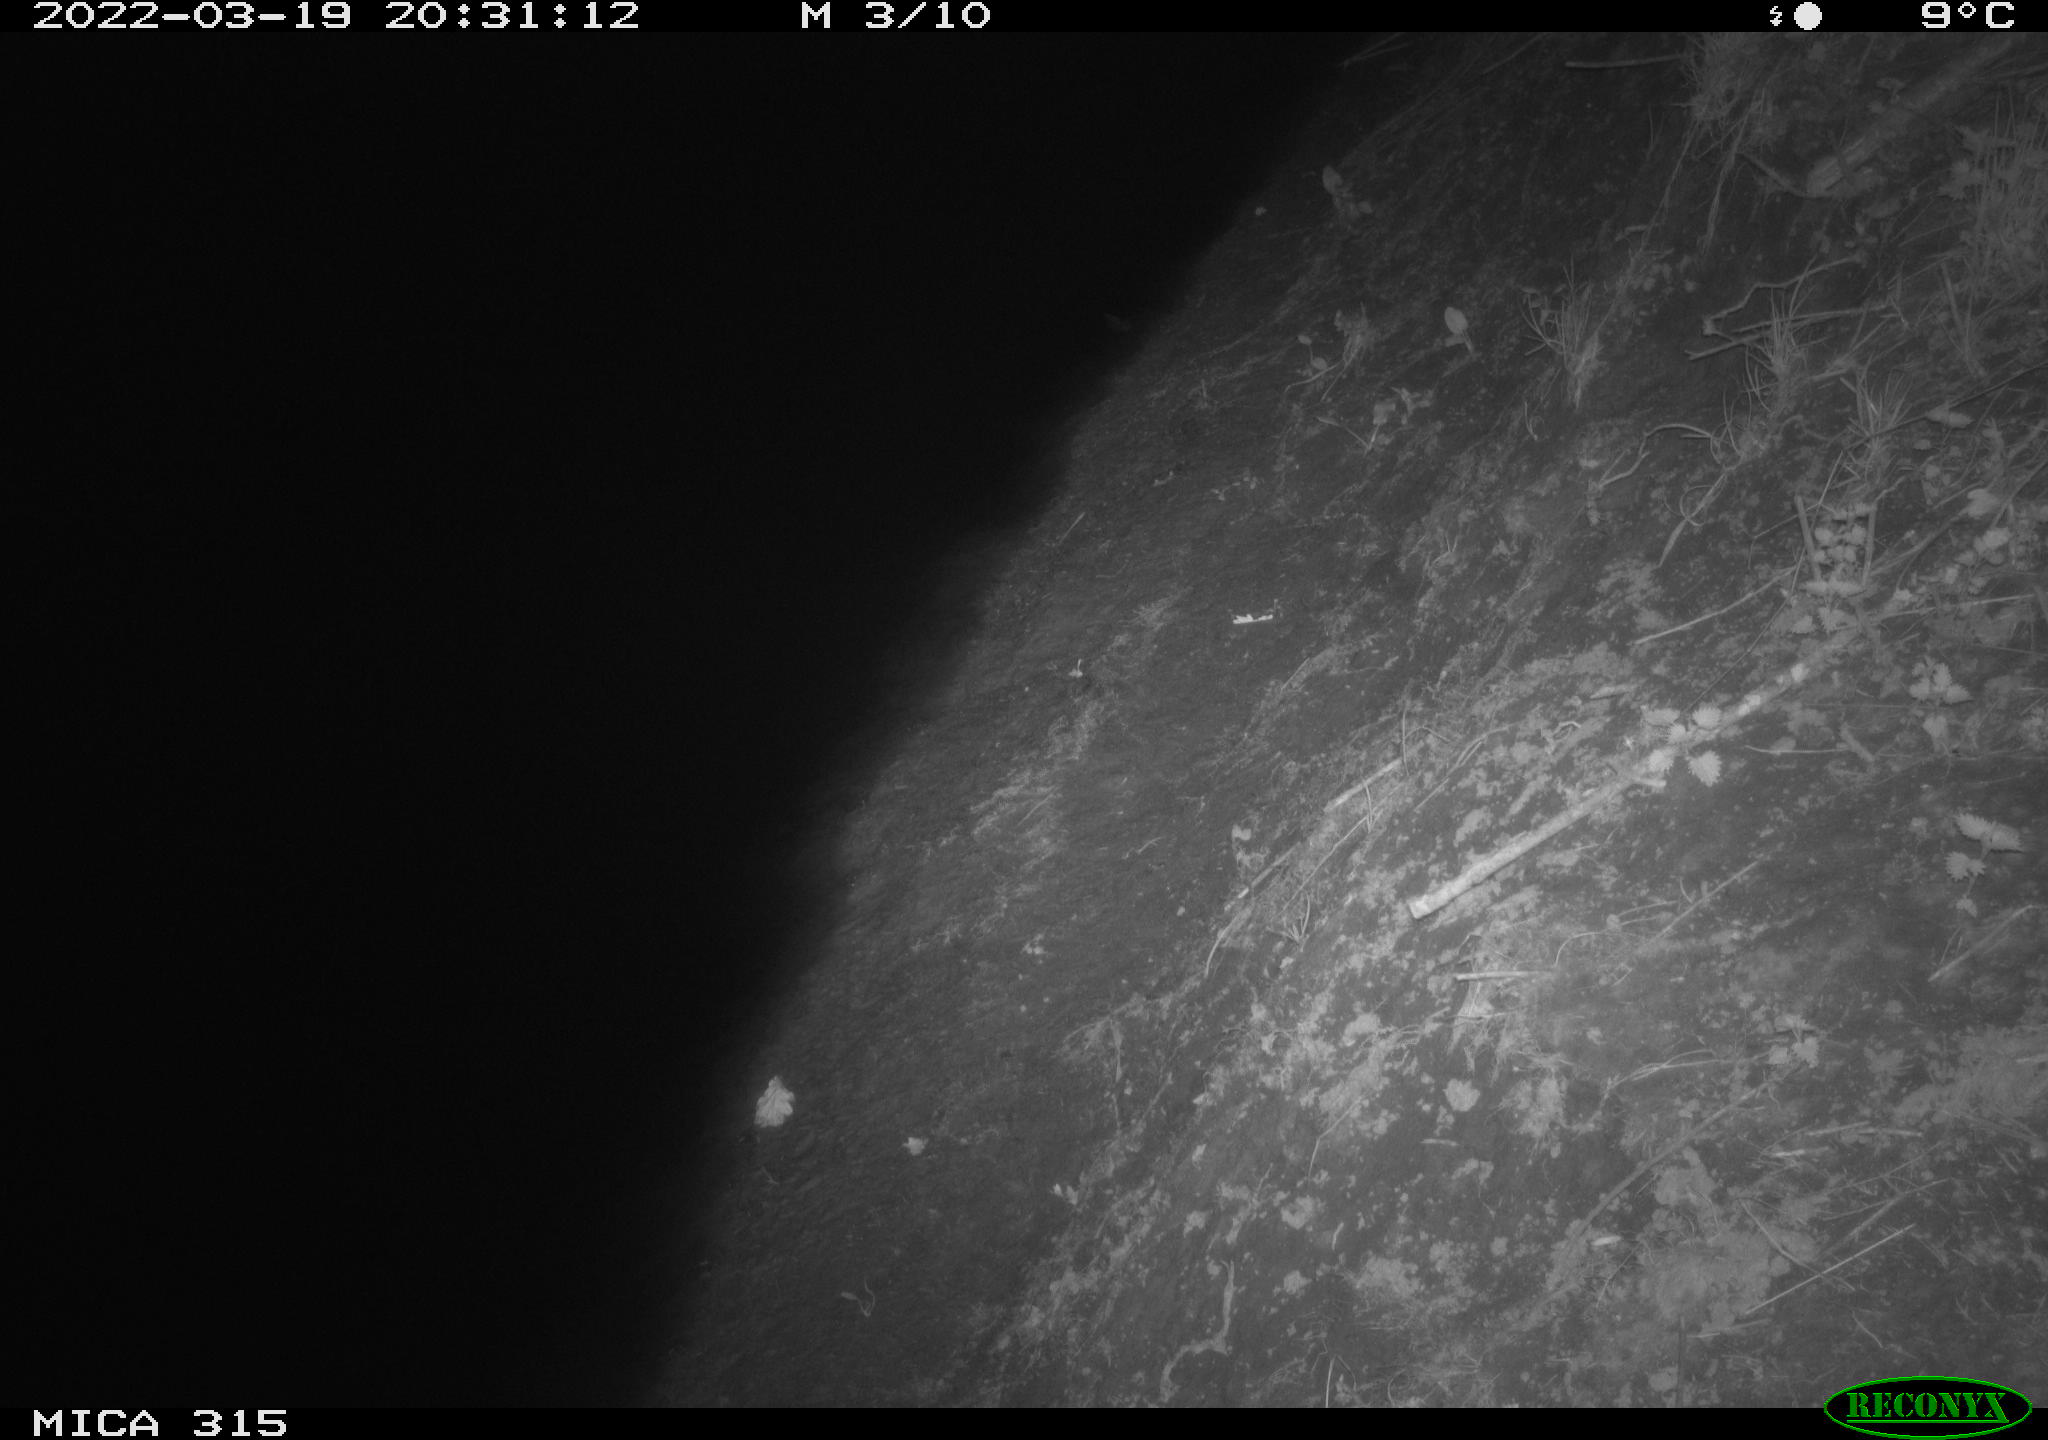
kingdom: Animalia
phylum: Chordata
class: Mammalia
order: Rodentia
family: Muridae
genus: Rattus
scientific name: Rattus norvegicus
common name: Brown rat
